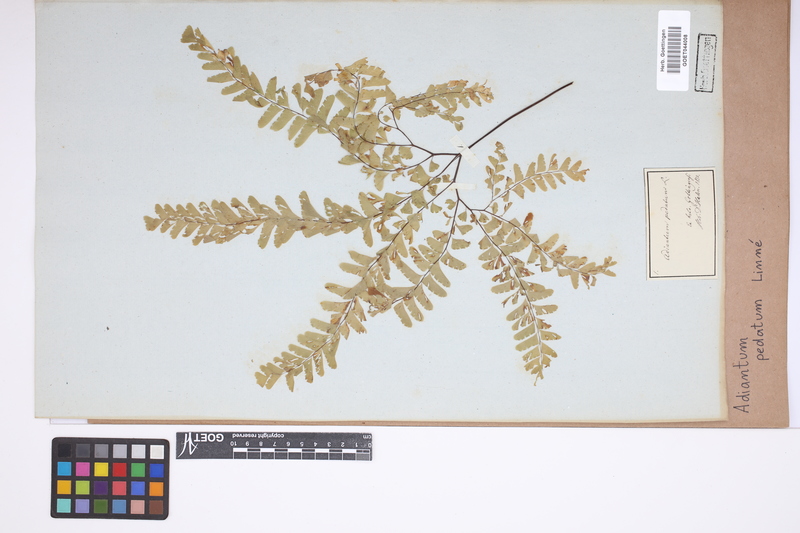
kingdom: Plantae
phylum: Tracheophyta
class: Polypodiopsida
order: Polypodiales
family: Pteridaceae
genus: Adiantum
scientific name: Adiantum pedatum
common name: Five-finger fern
